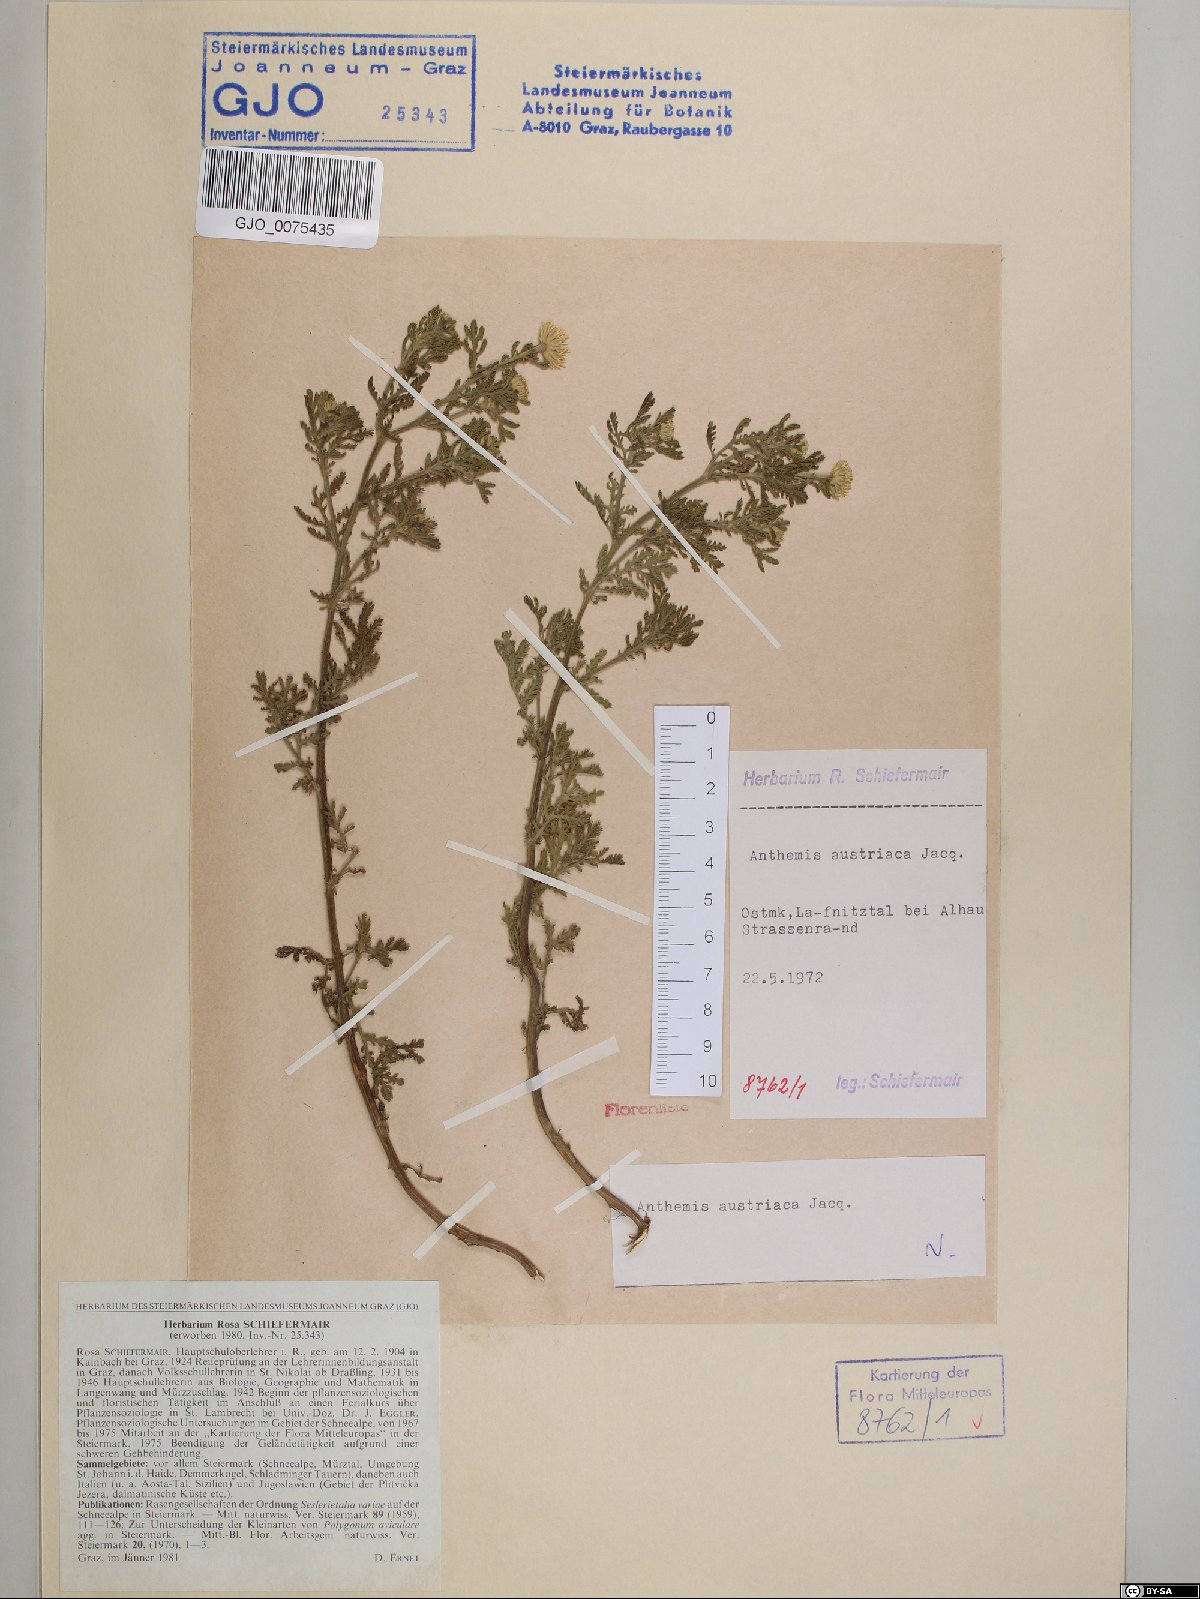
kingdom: Plantae
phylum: Tracheophyta
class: Magnoliopsida
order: Asterales
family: Asteraceae
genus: Cota
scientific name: Cota austriaca
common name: Austrian chamomile
